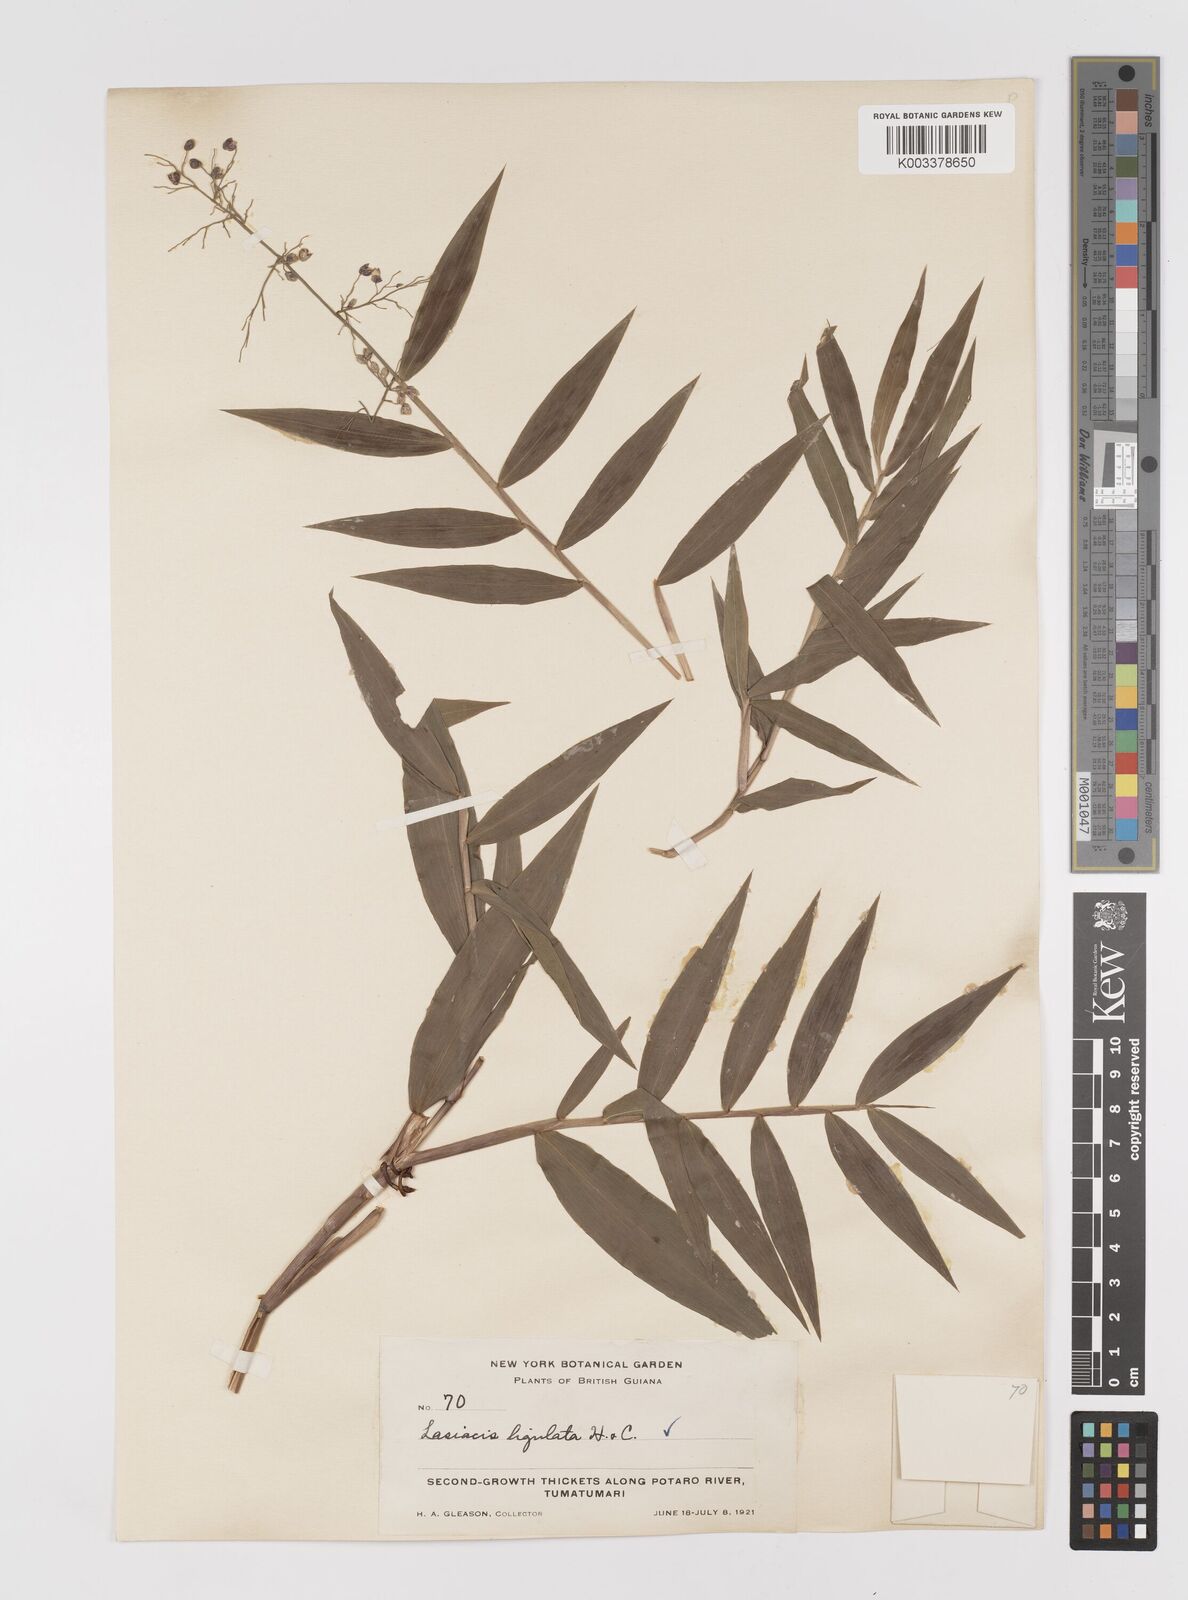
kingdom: Plantae
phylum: Tracheophyta
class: Liliopsida
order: Poales
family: Poaceae
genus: Lasiacis
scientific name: Lasiacis ligulata
